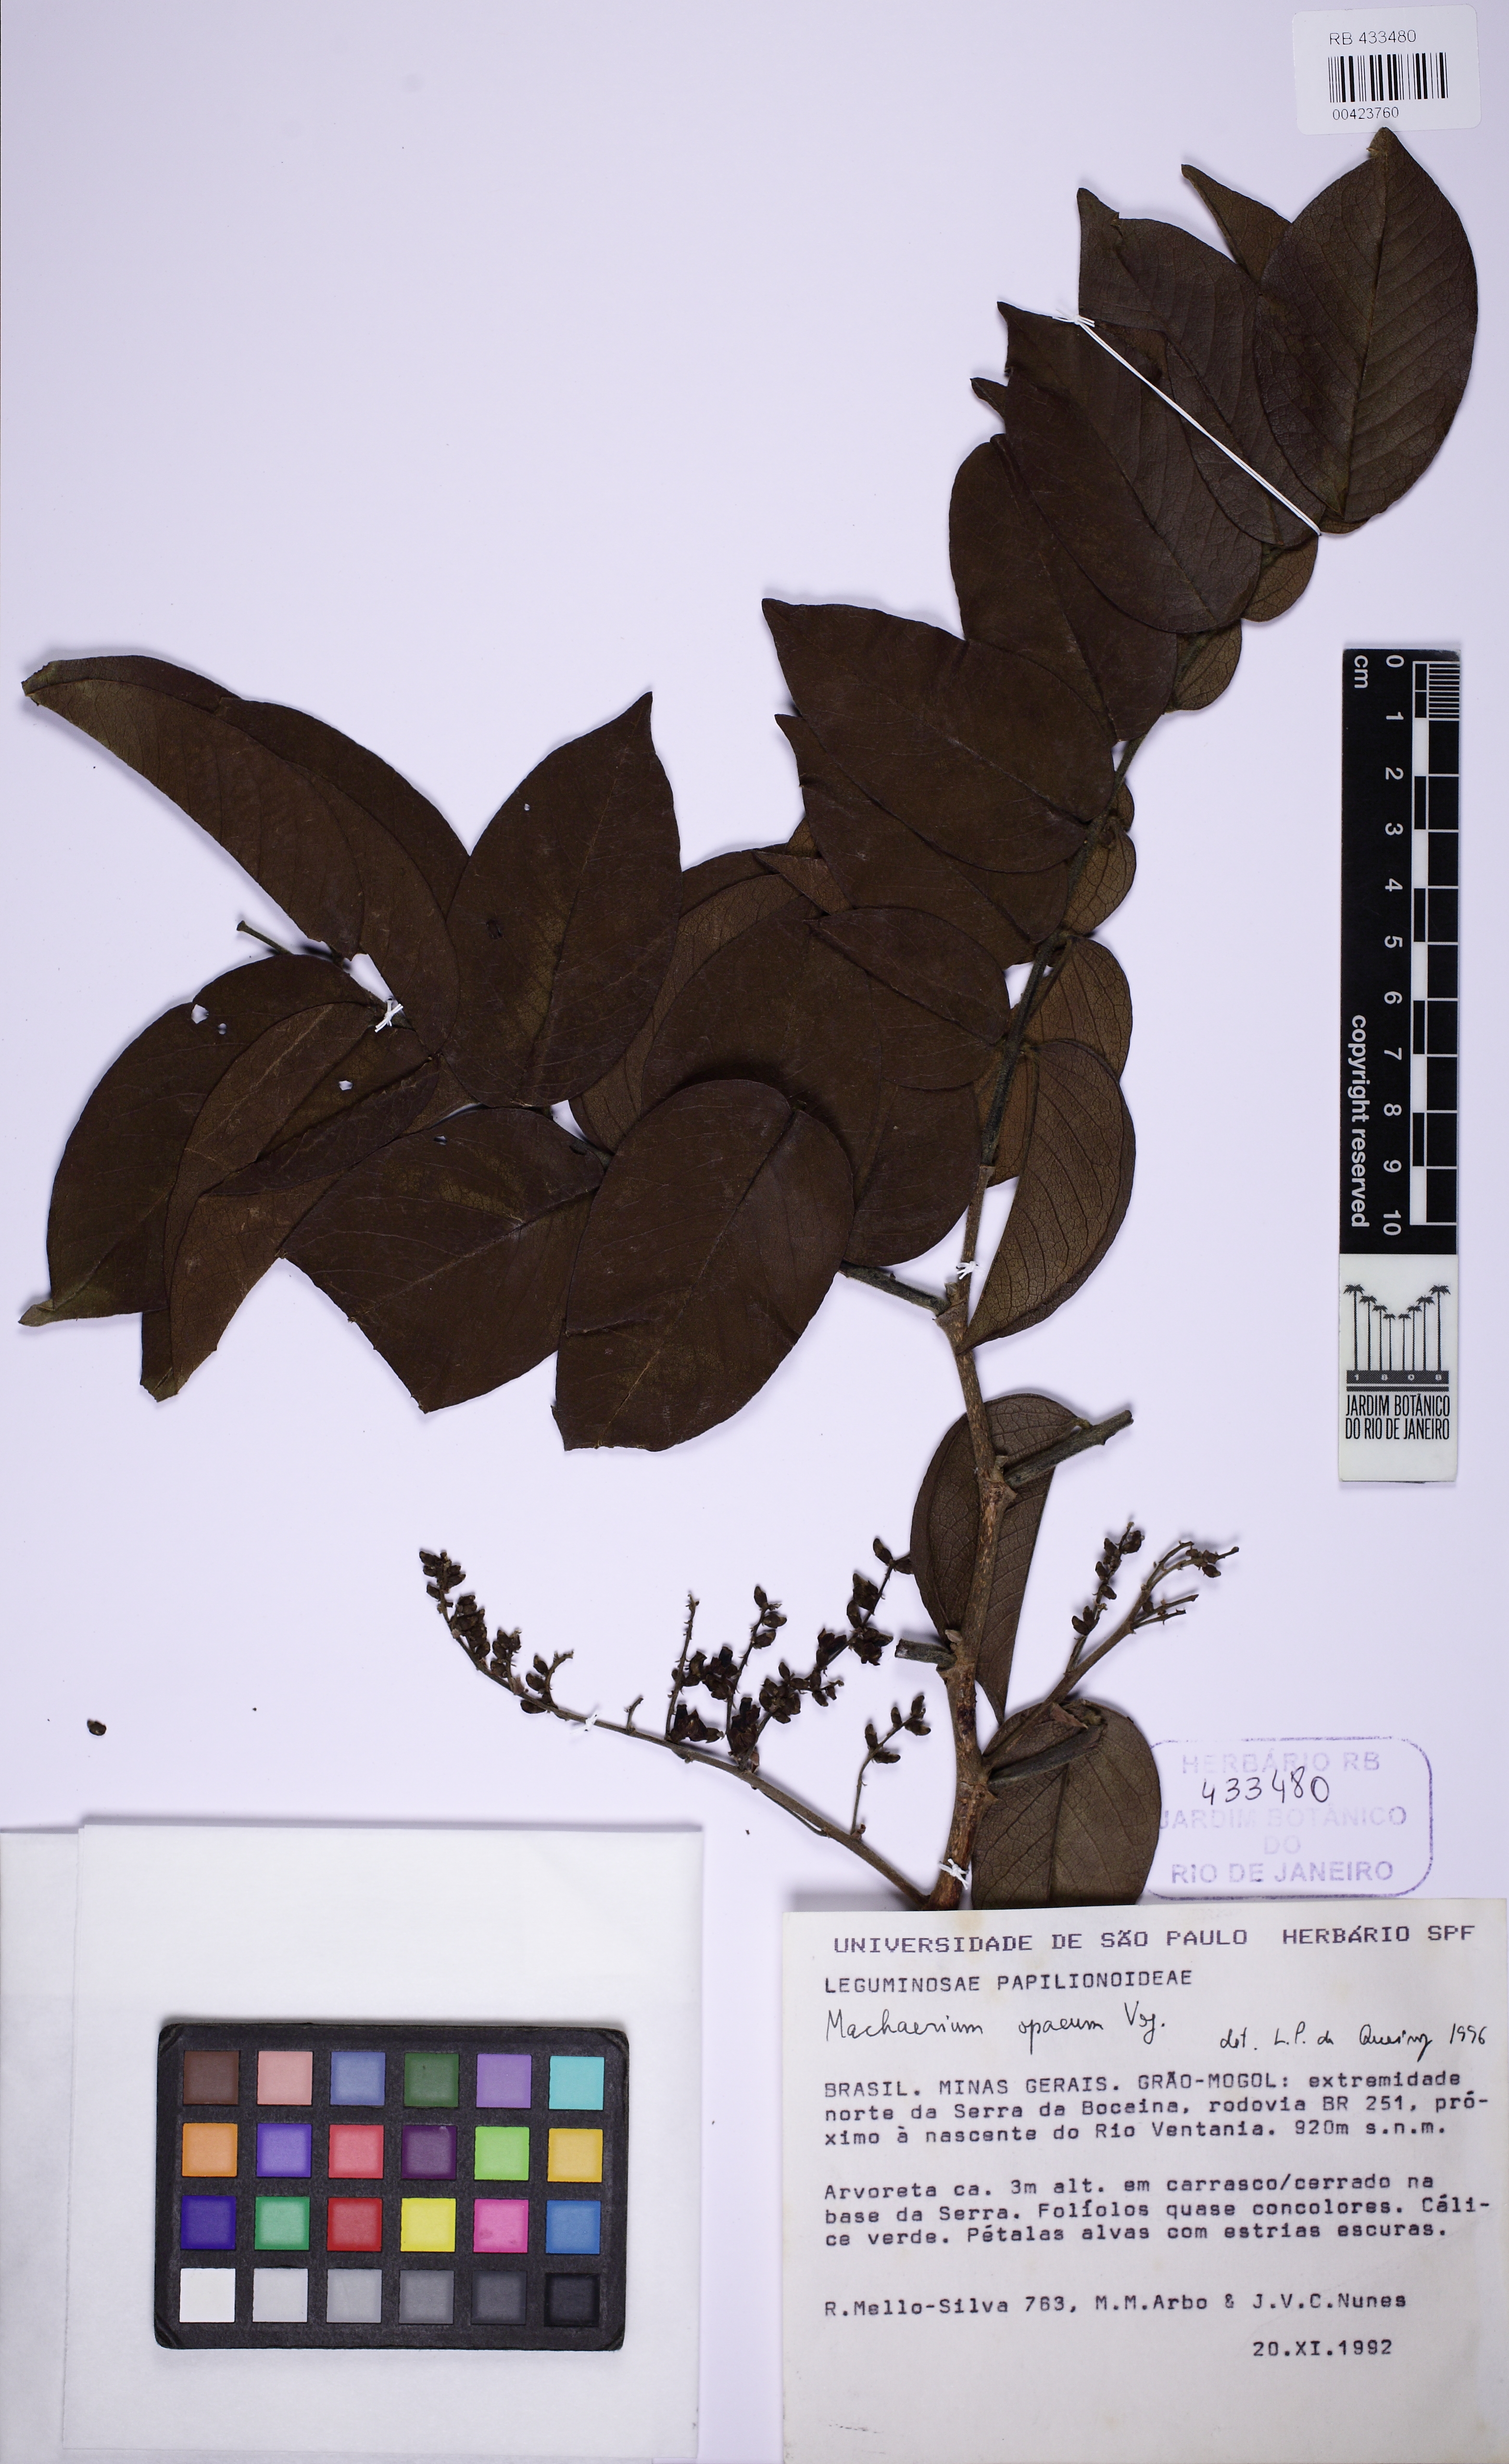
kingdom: Plantae
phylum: Tracheophyta
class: Magnoliopsida
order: Fabales
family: Fabaceae
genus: Machaerium
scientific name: Machaerium opacum
